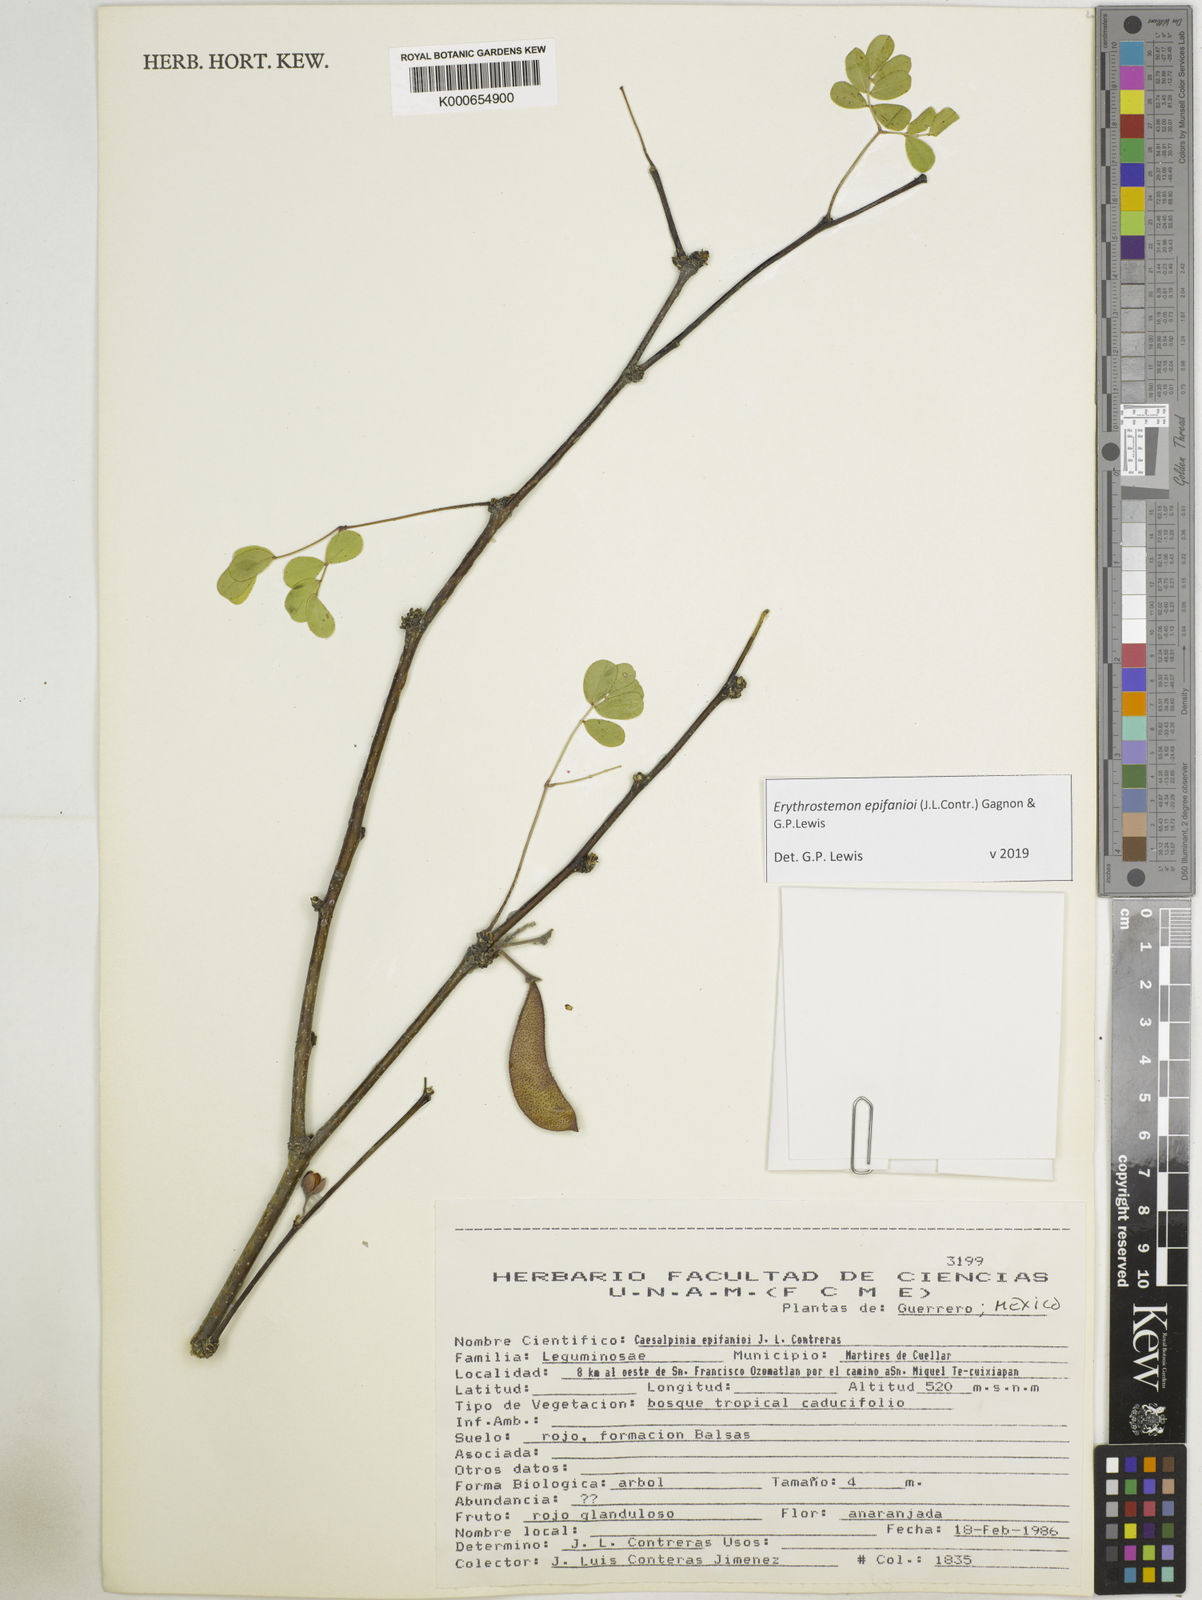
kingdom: Plantae
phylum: Tracheophyta
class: Magnoliopsida
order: Fabales
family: Fabaceae
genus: Erythrostemon
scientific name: Erythrostemon epifanioi
